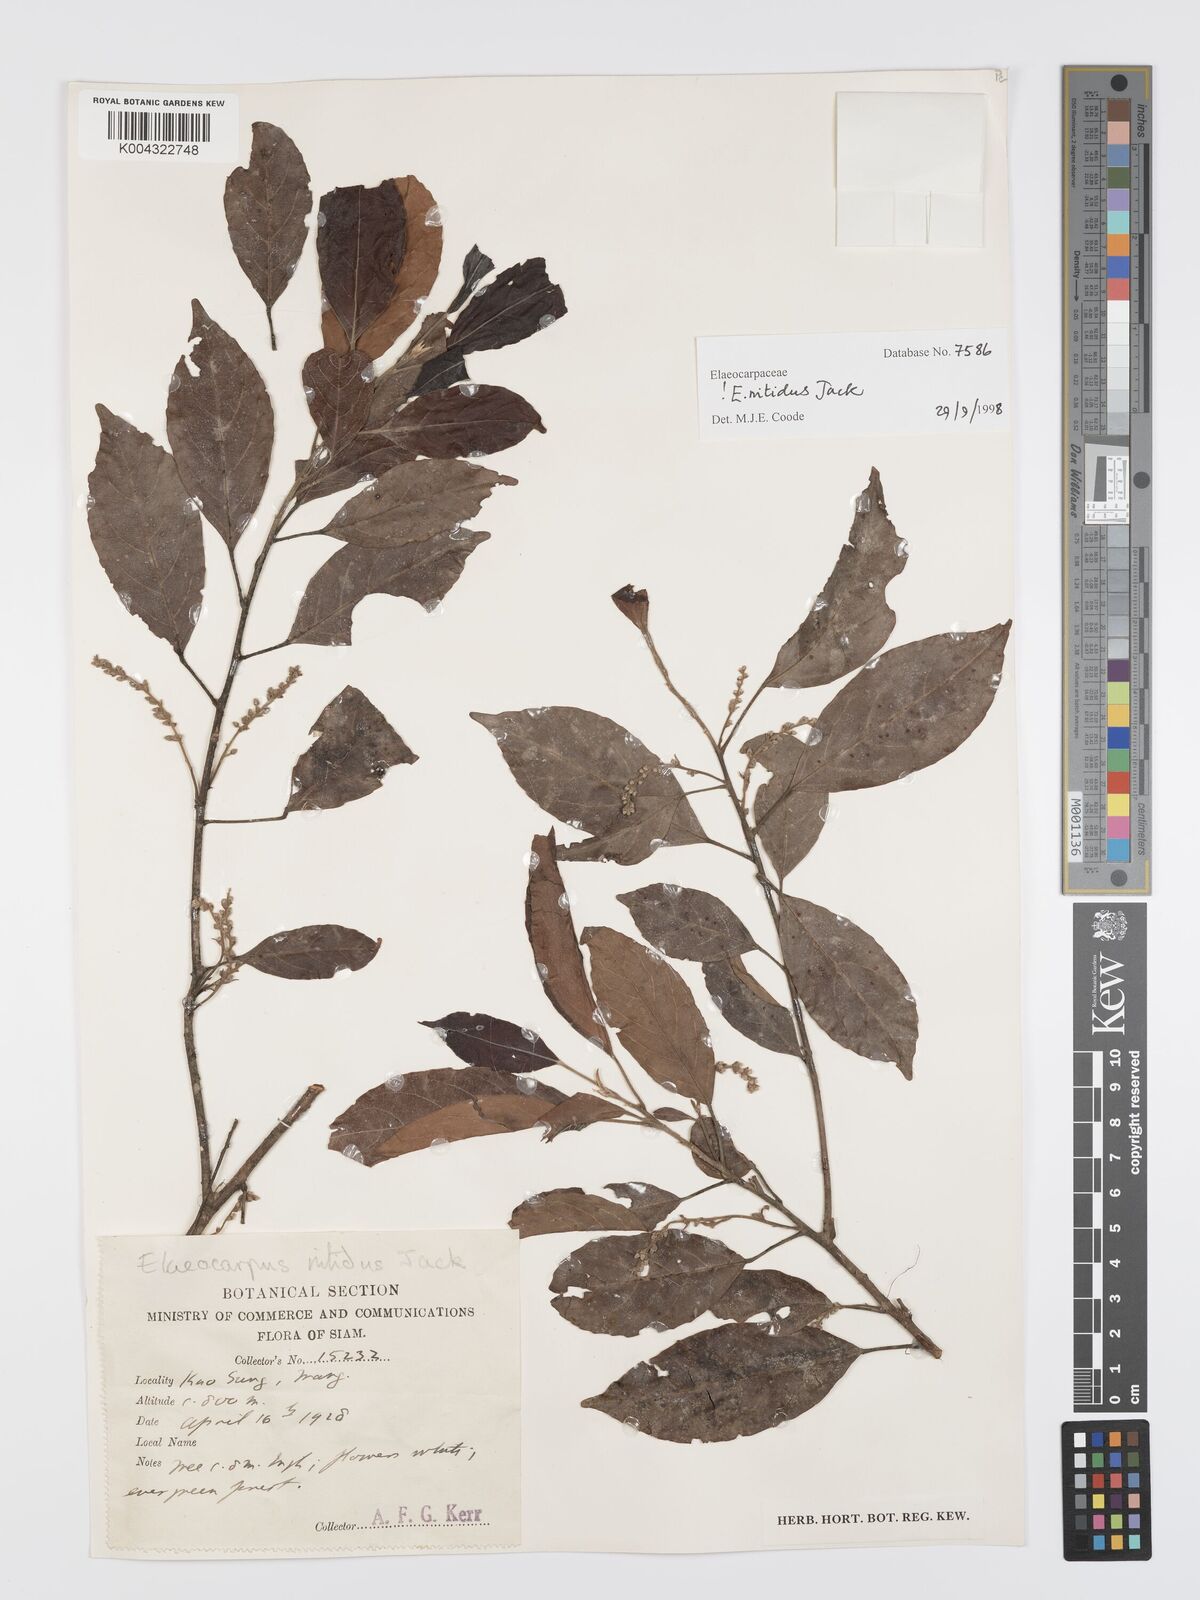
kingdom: Plantae
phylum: Tracheophyta
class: Magnoliopsida
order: Oxalidales
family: Elaeocarpaceae
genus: Elaeocarpus
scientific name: Elaeocarpus nitidus
